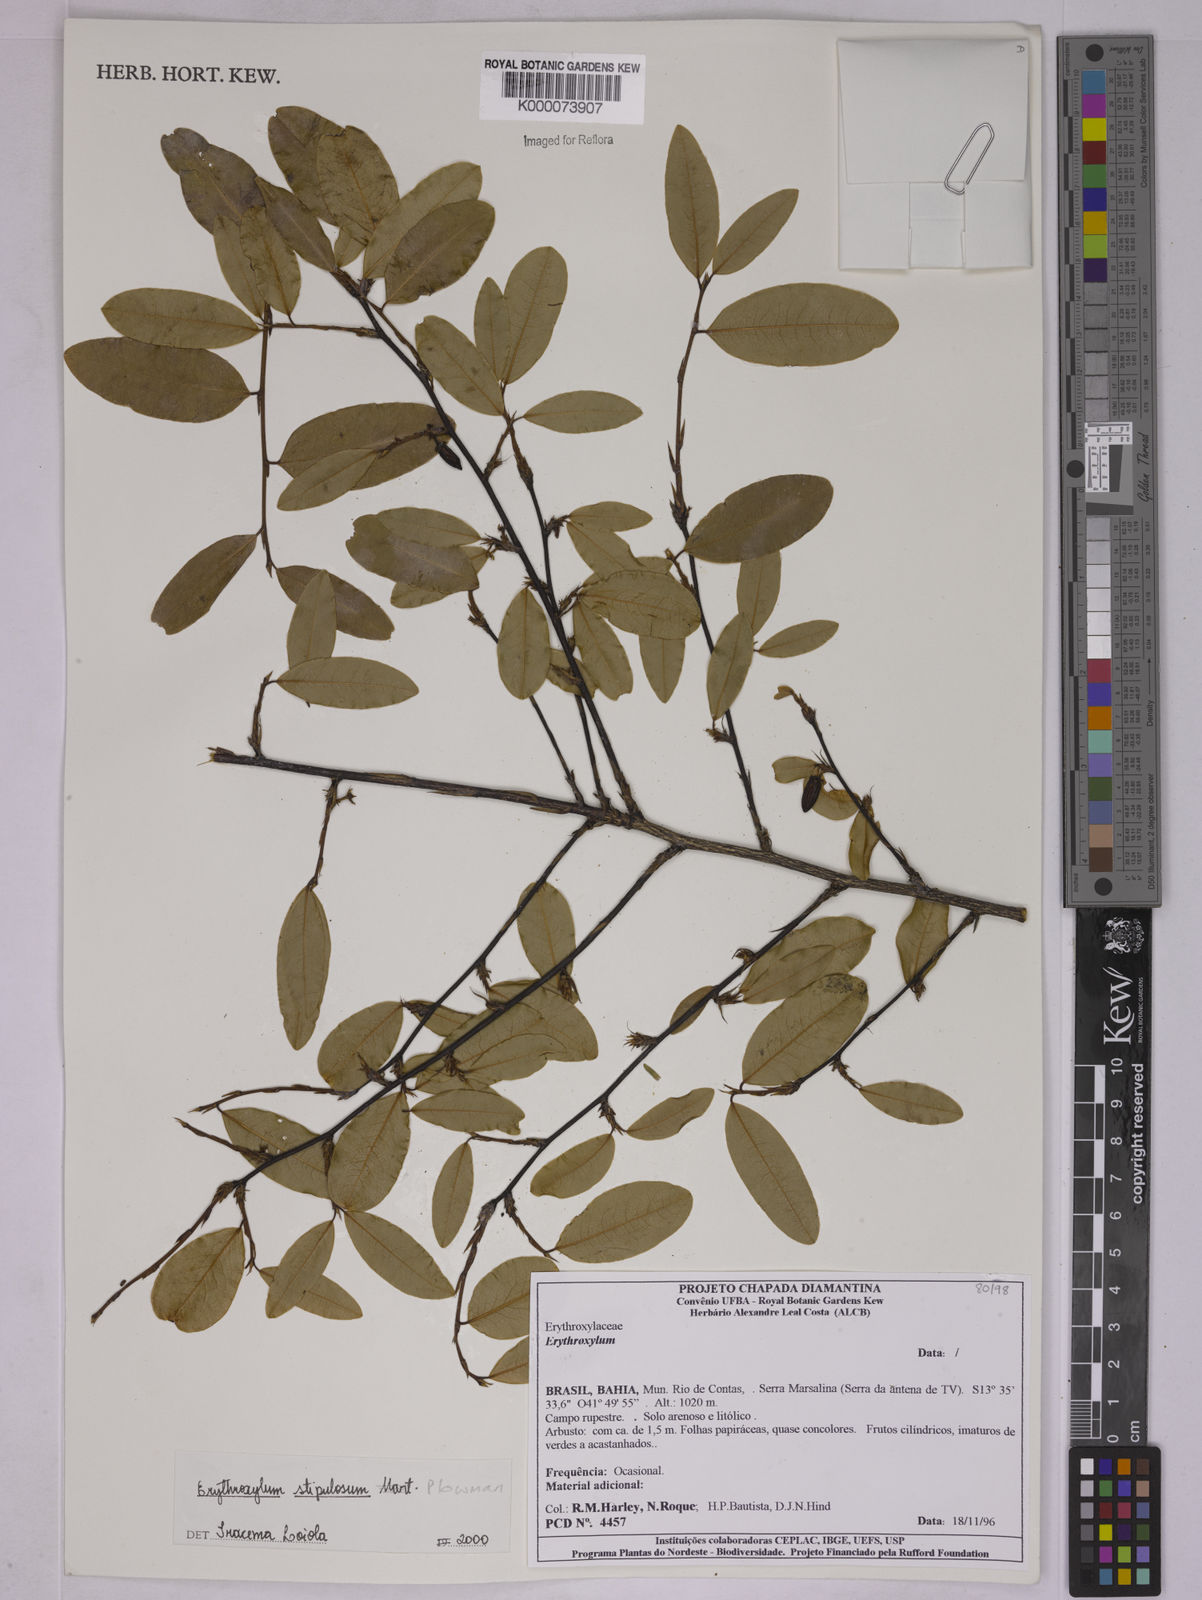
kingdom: Plantae
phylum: Tracheophyta
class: Magnoliopsida
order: Malpighiales
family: Erythroxylaceae
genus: Erythroxylum
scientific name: Erythroxylum stipulosum
